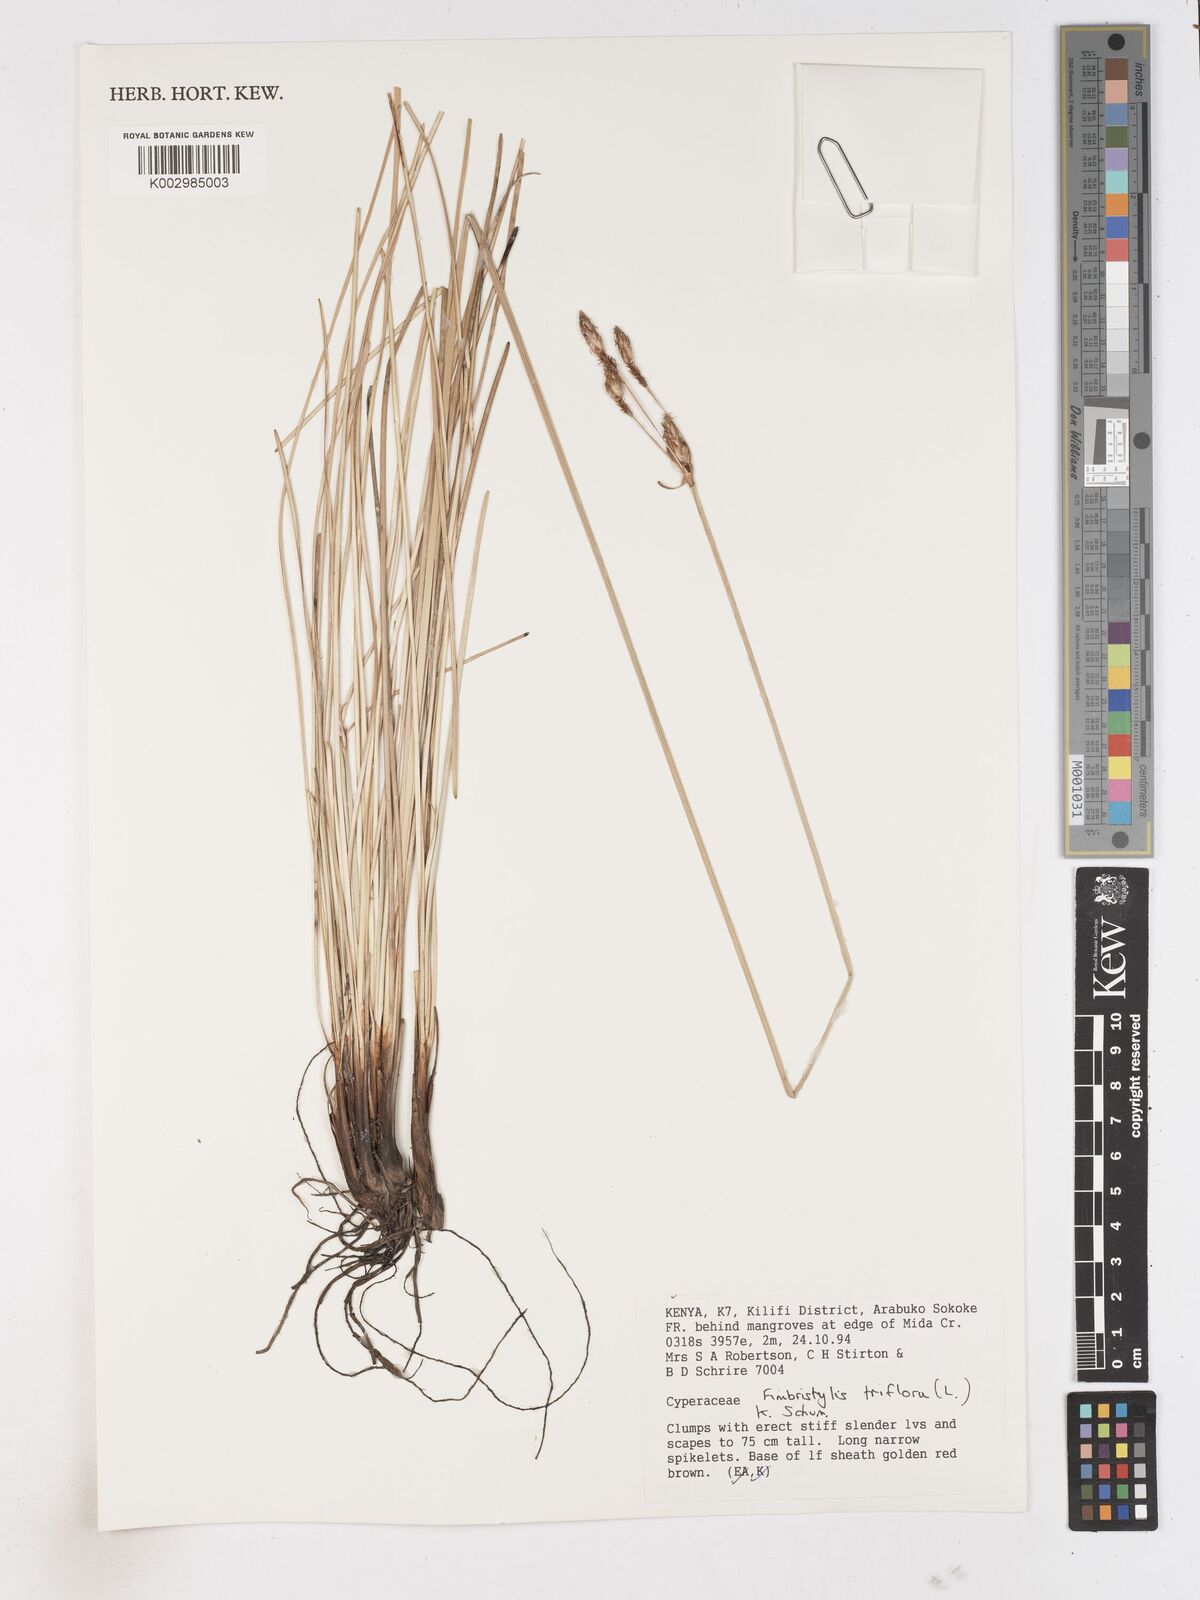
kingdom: Plantae
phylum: Tracheophyta
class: Liliopsida
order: Poales
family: Cyperaceae
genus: Abildgaardia
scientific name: Abildgaardia triflora
